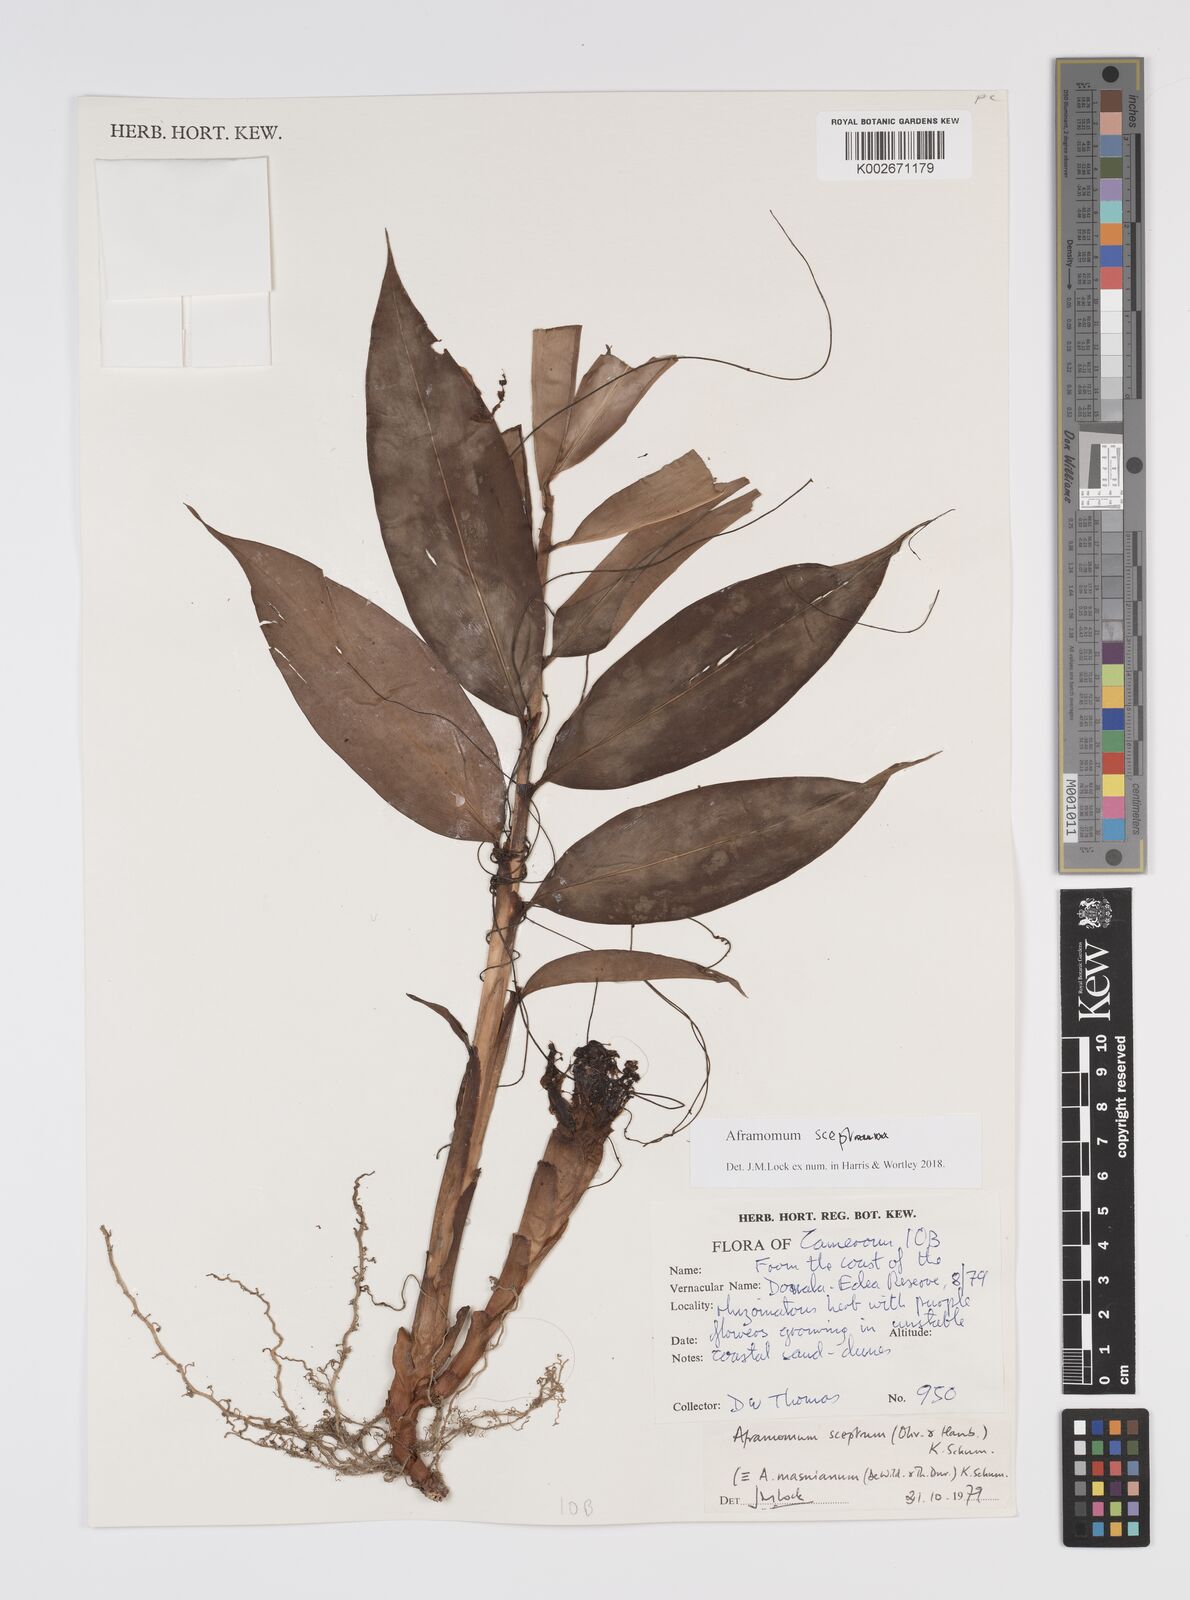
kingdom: Plantae
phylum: Tracheophyta
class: Liliopsida
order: Zingiberales
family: Zingiberaceae
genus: Aframomum
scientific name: Aframomum cereum
